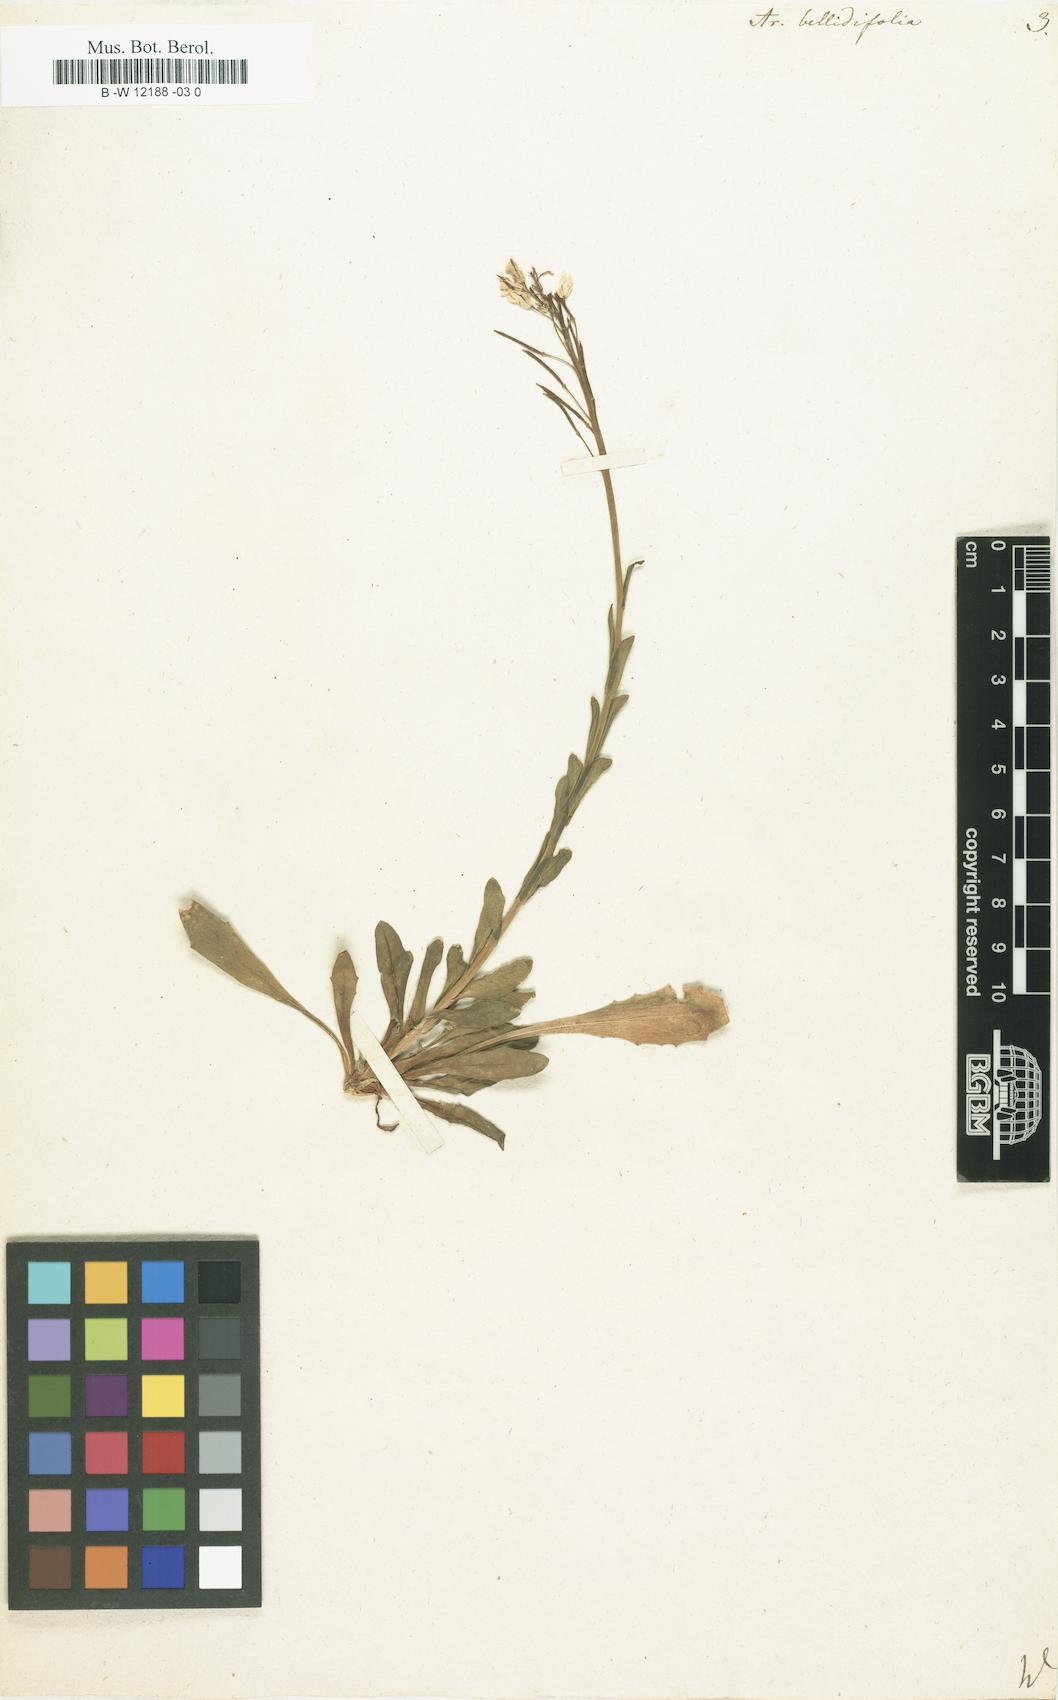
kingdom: Plantae
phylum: Tracheophyta
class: Magnoliopsida
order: Brassicales
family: Brassicaceae
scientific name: Brassicaceae
